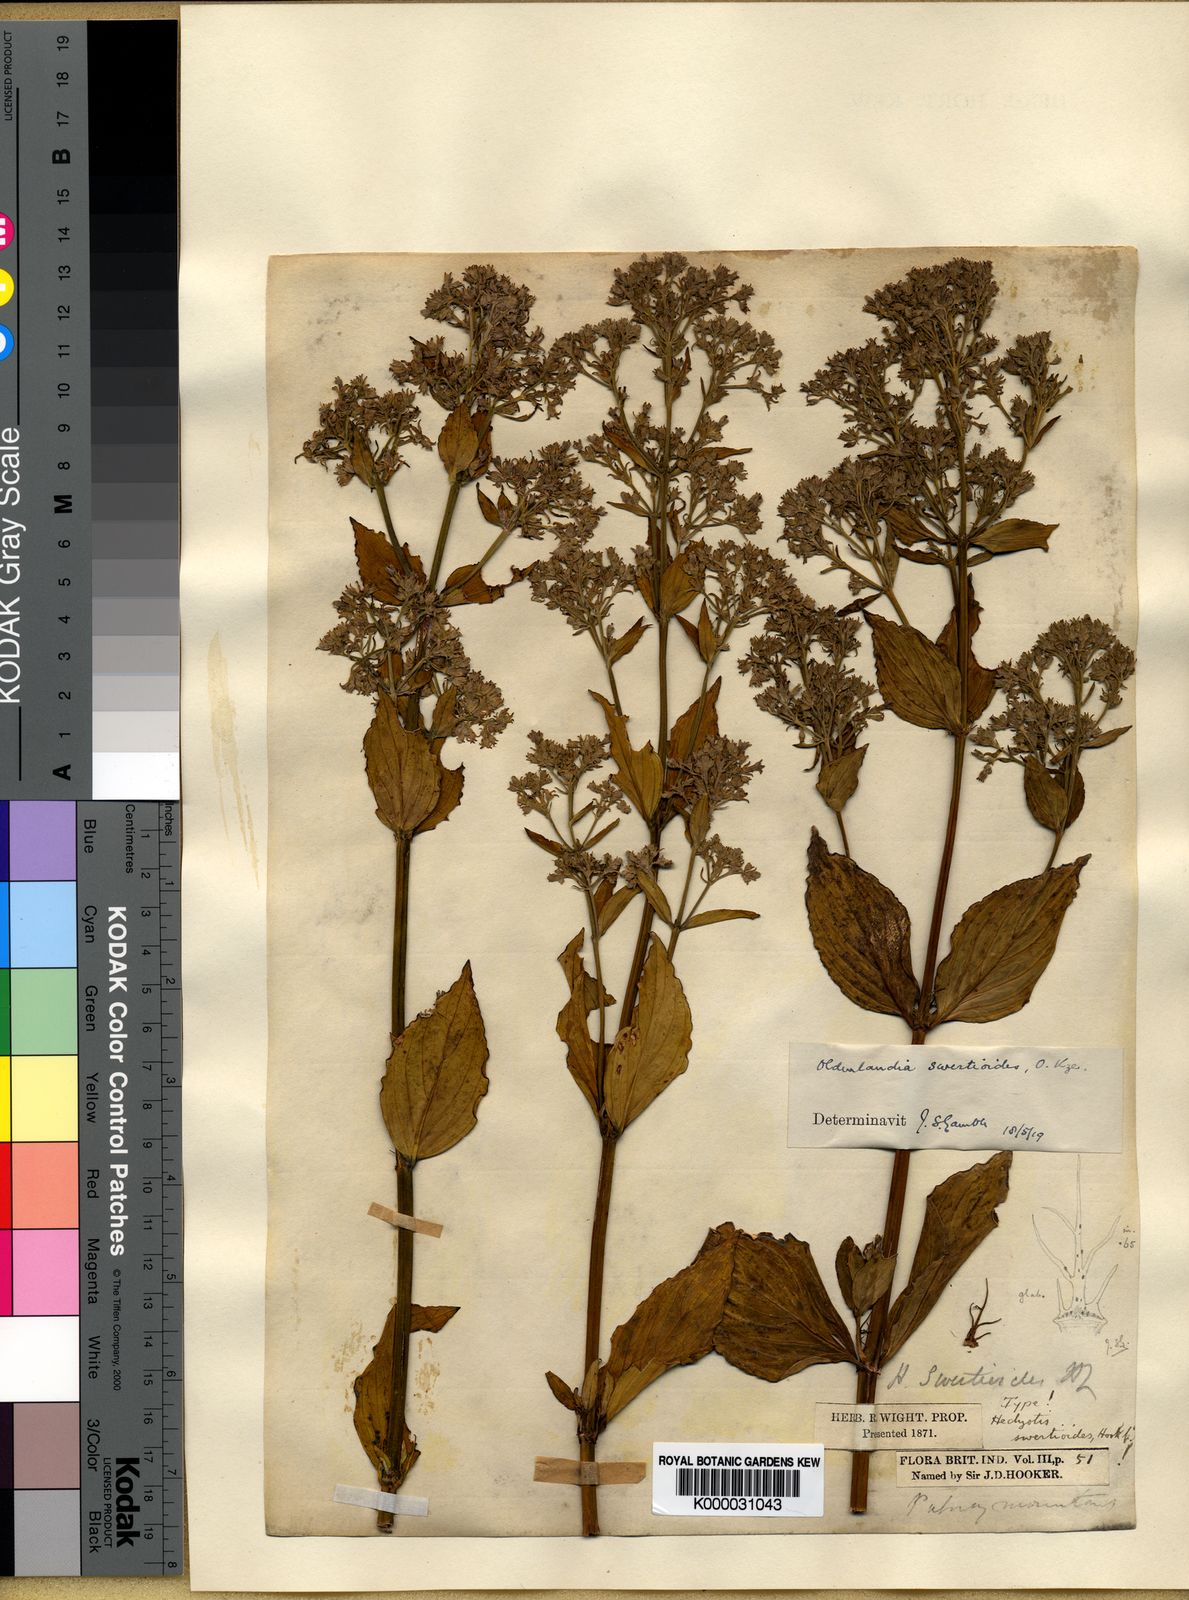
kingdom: Plantae
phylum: Tracheophyta
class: Magnoliopsida
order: Gentianales
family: Rubiaceae
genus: Hedyotis
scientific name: Hedyotis swertioides
